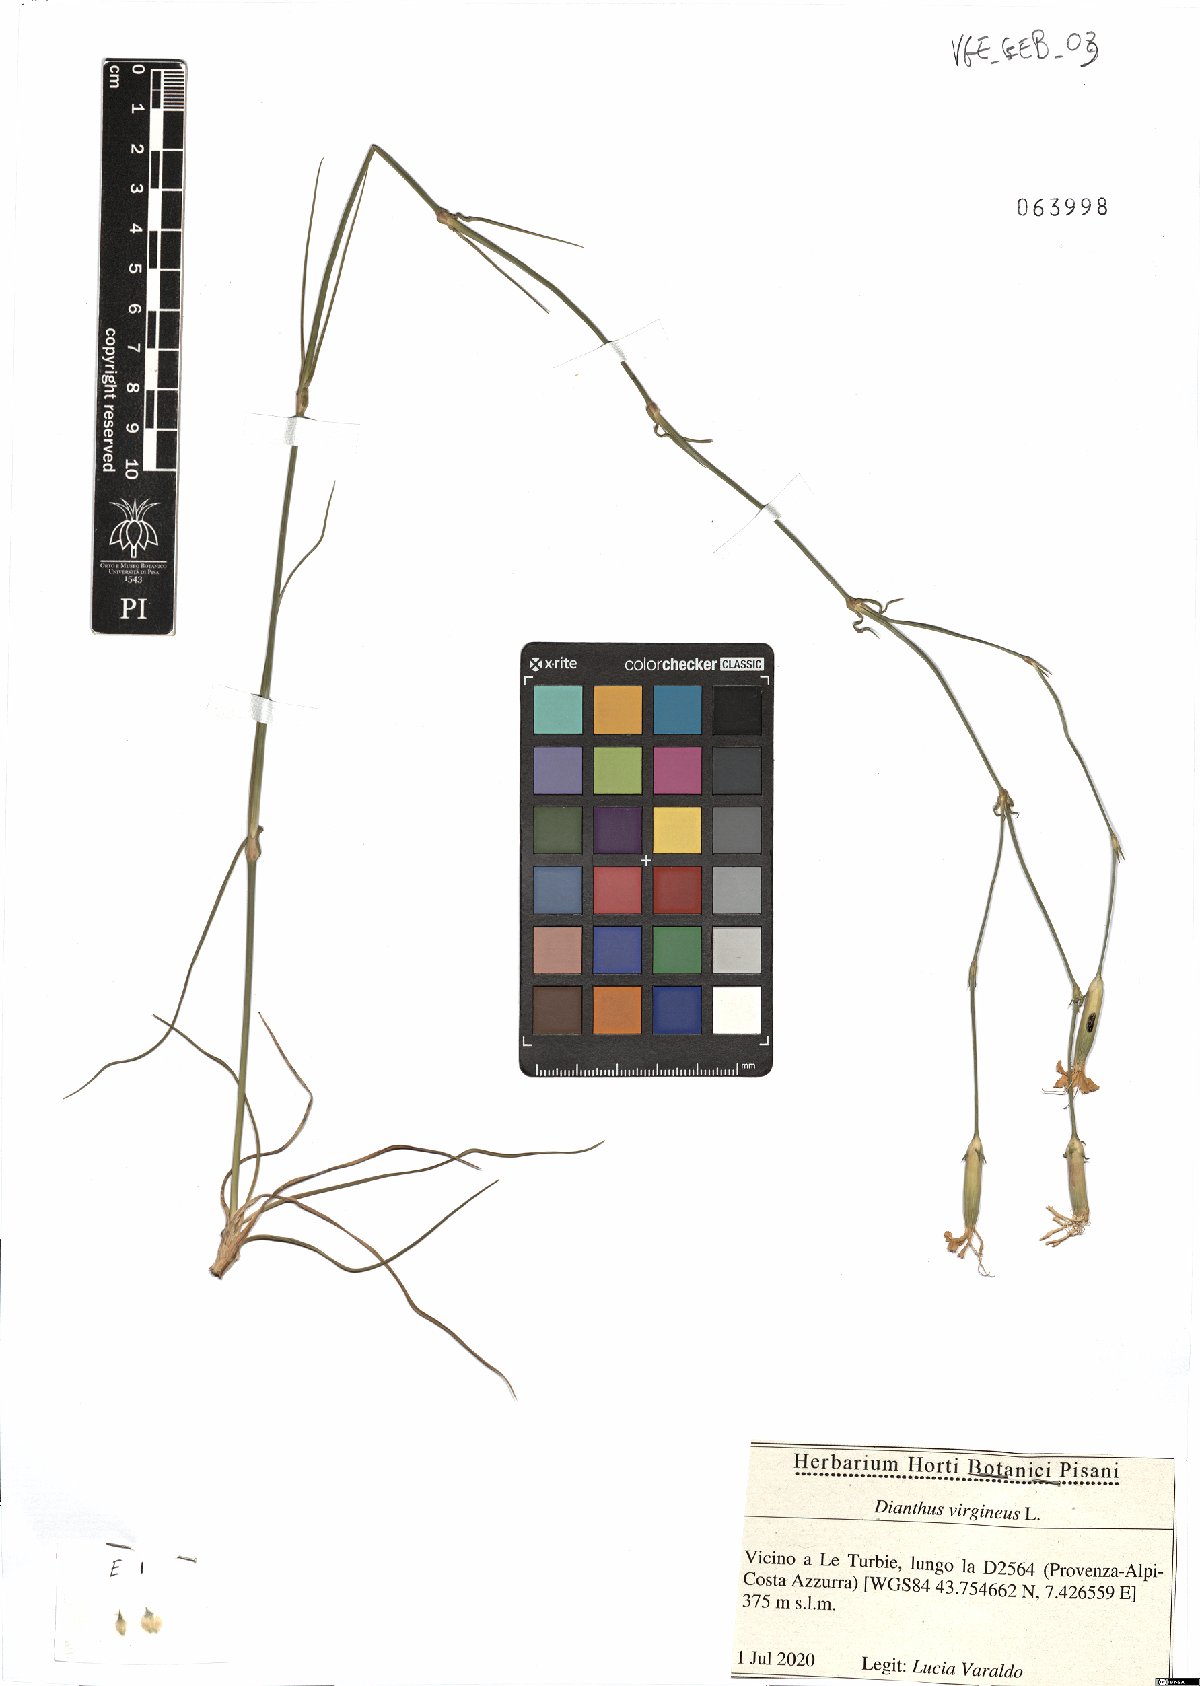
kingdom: Plantae
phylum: Tracheophyta
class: Magnoliopsida
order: Caryophyllales
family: Caryophyllaceae
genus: Dianthus
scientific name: Dianthus virgineus
